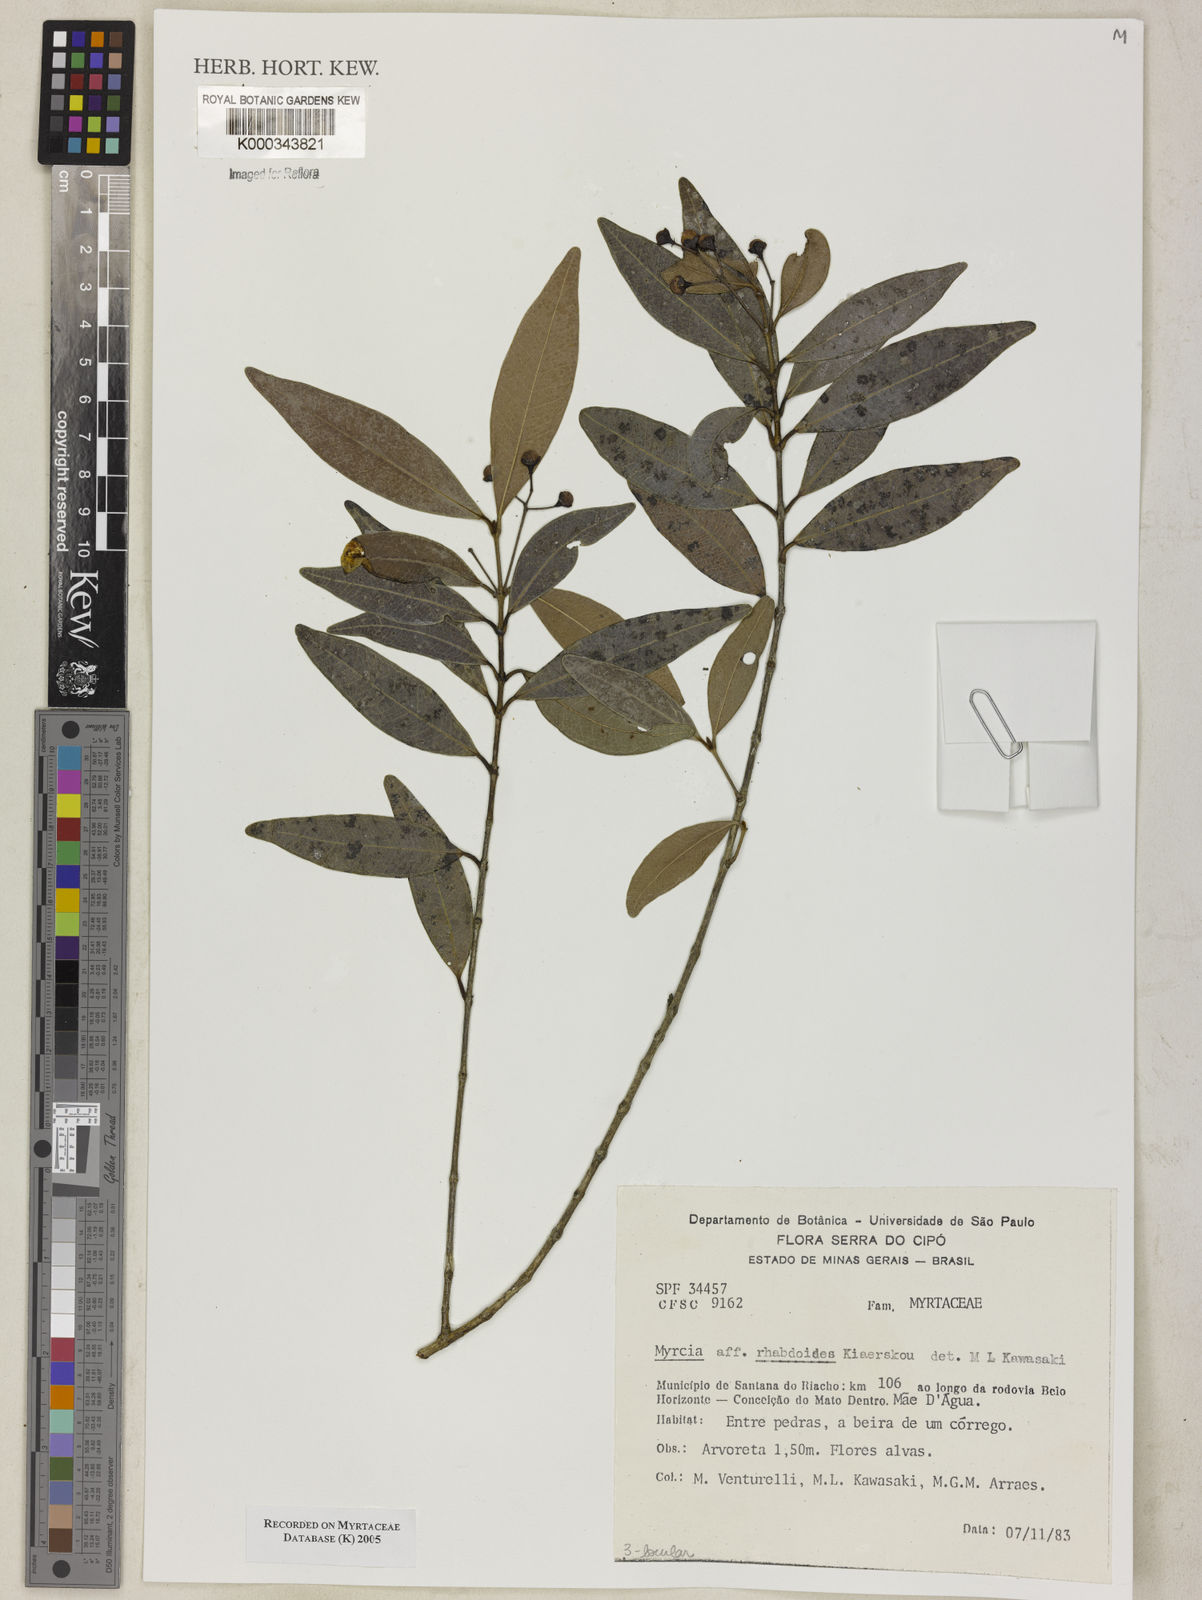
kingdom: Plantae
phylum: Tracheophyta
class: Magnoliopsida
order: Myrtales
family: Myrtaceae
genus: Myrcia
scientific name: Myrcia guianensis
